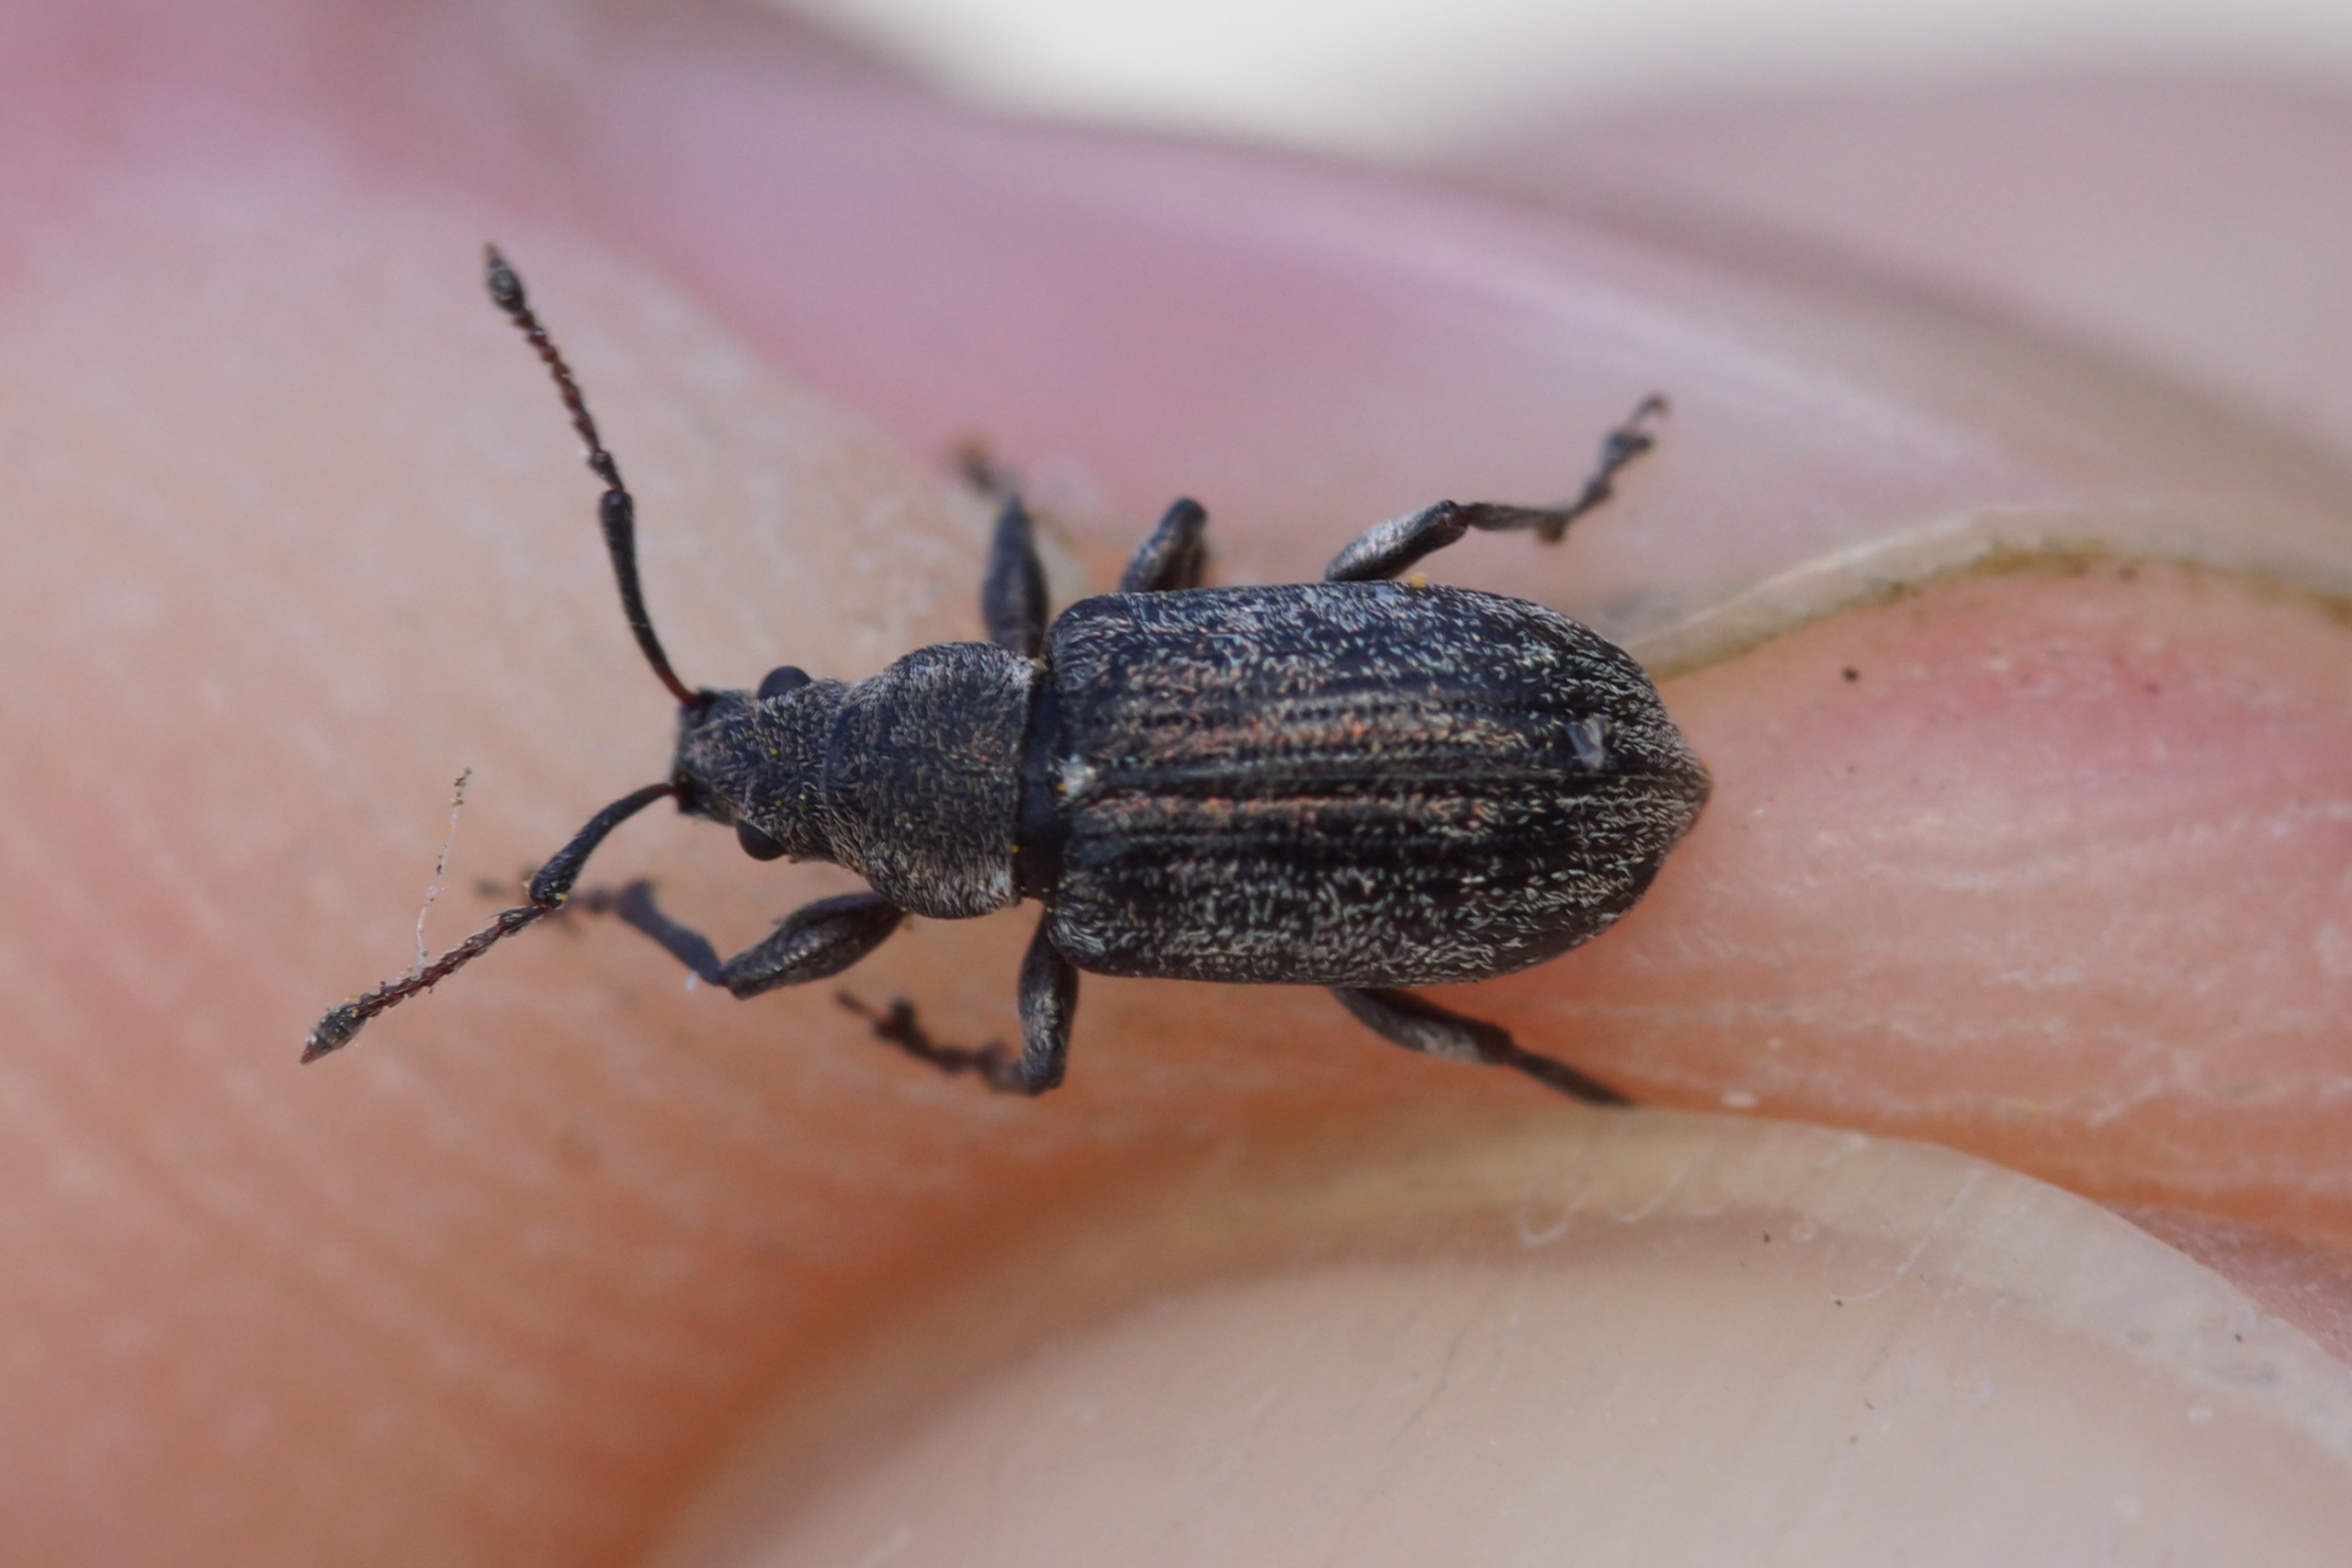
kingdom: Animalia
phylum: Arthropoda
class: Insecta
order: Coleoptera
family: Curculionidae
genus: Phyllobius
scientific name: Phyllobius pyri
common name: Pæreløvsnudebille
